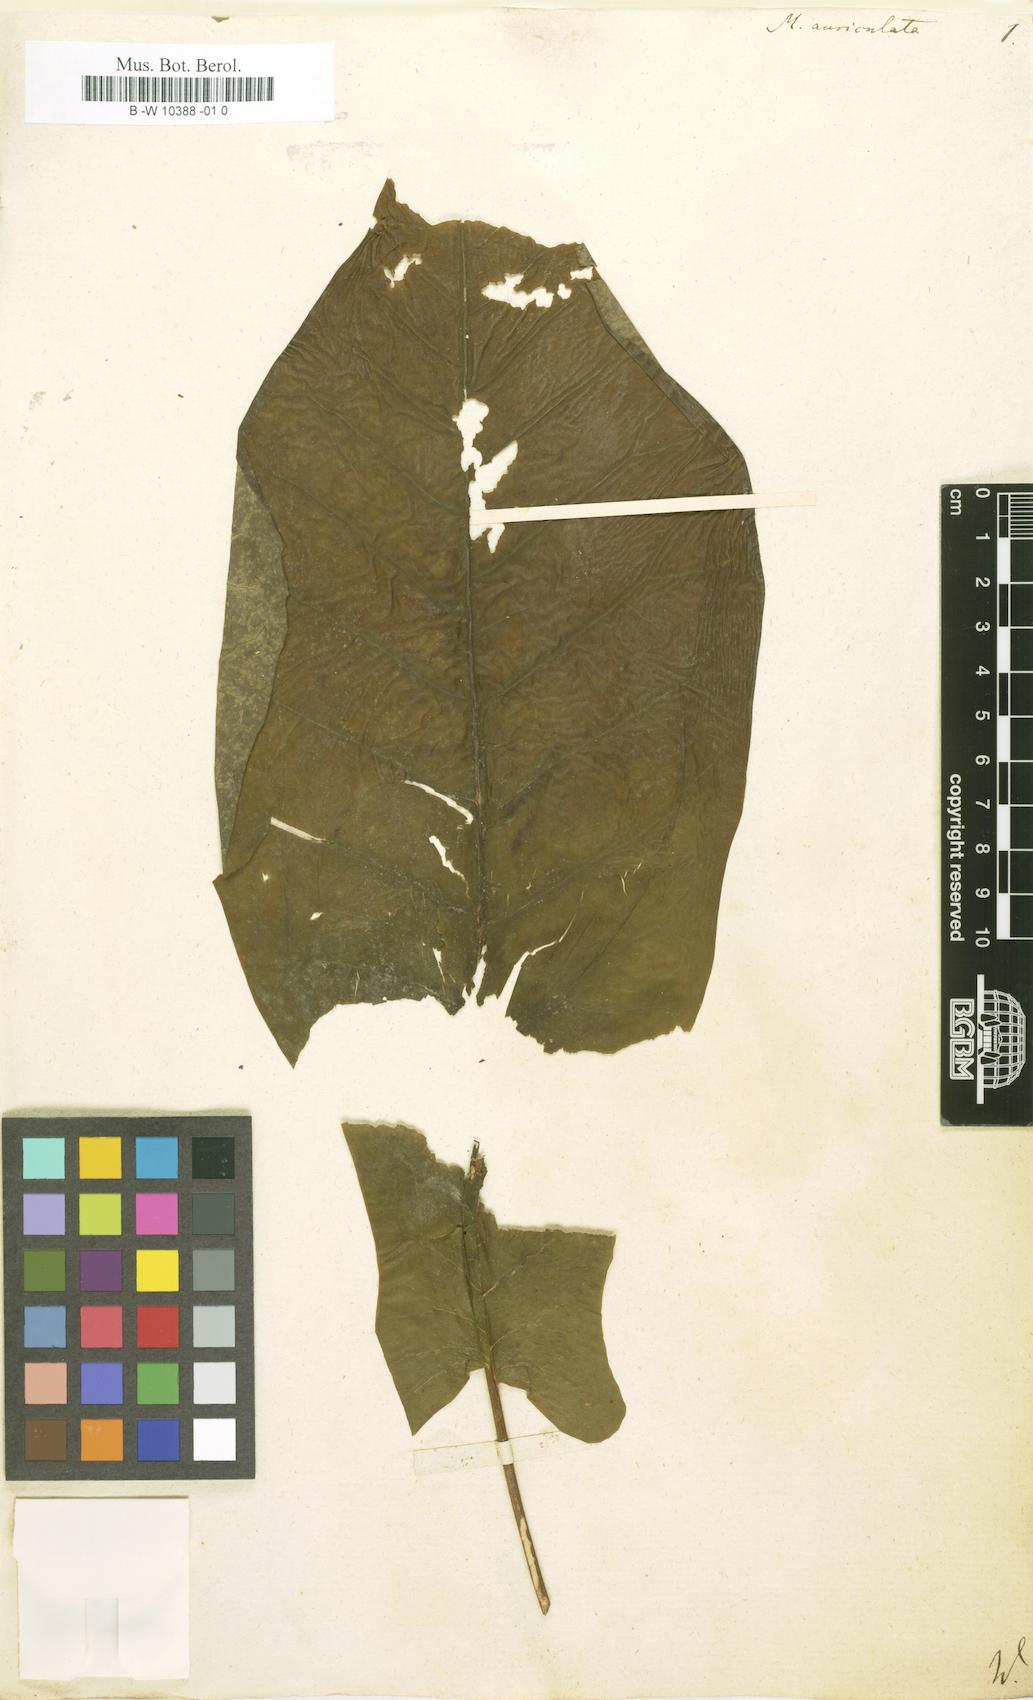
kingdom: Plantae
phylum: Tracheophyta
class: Magnoliopsida
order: Magnoliales
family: Magnoliaceae
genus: Magnolia
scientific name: Magnolia fraseri
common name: Fraser's magnolia
